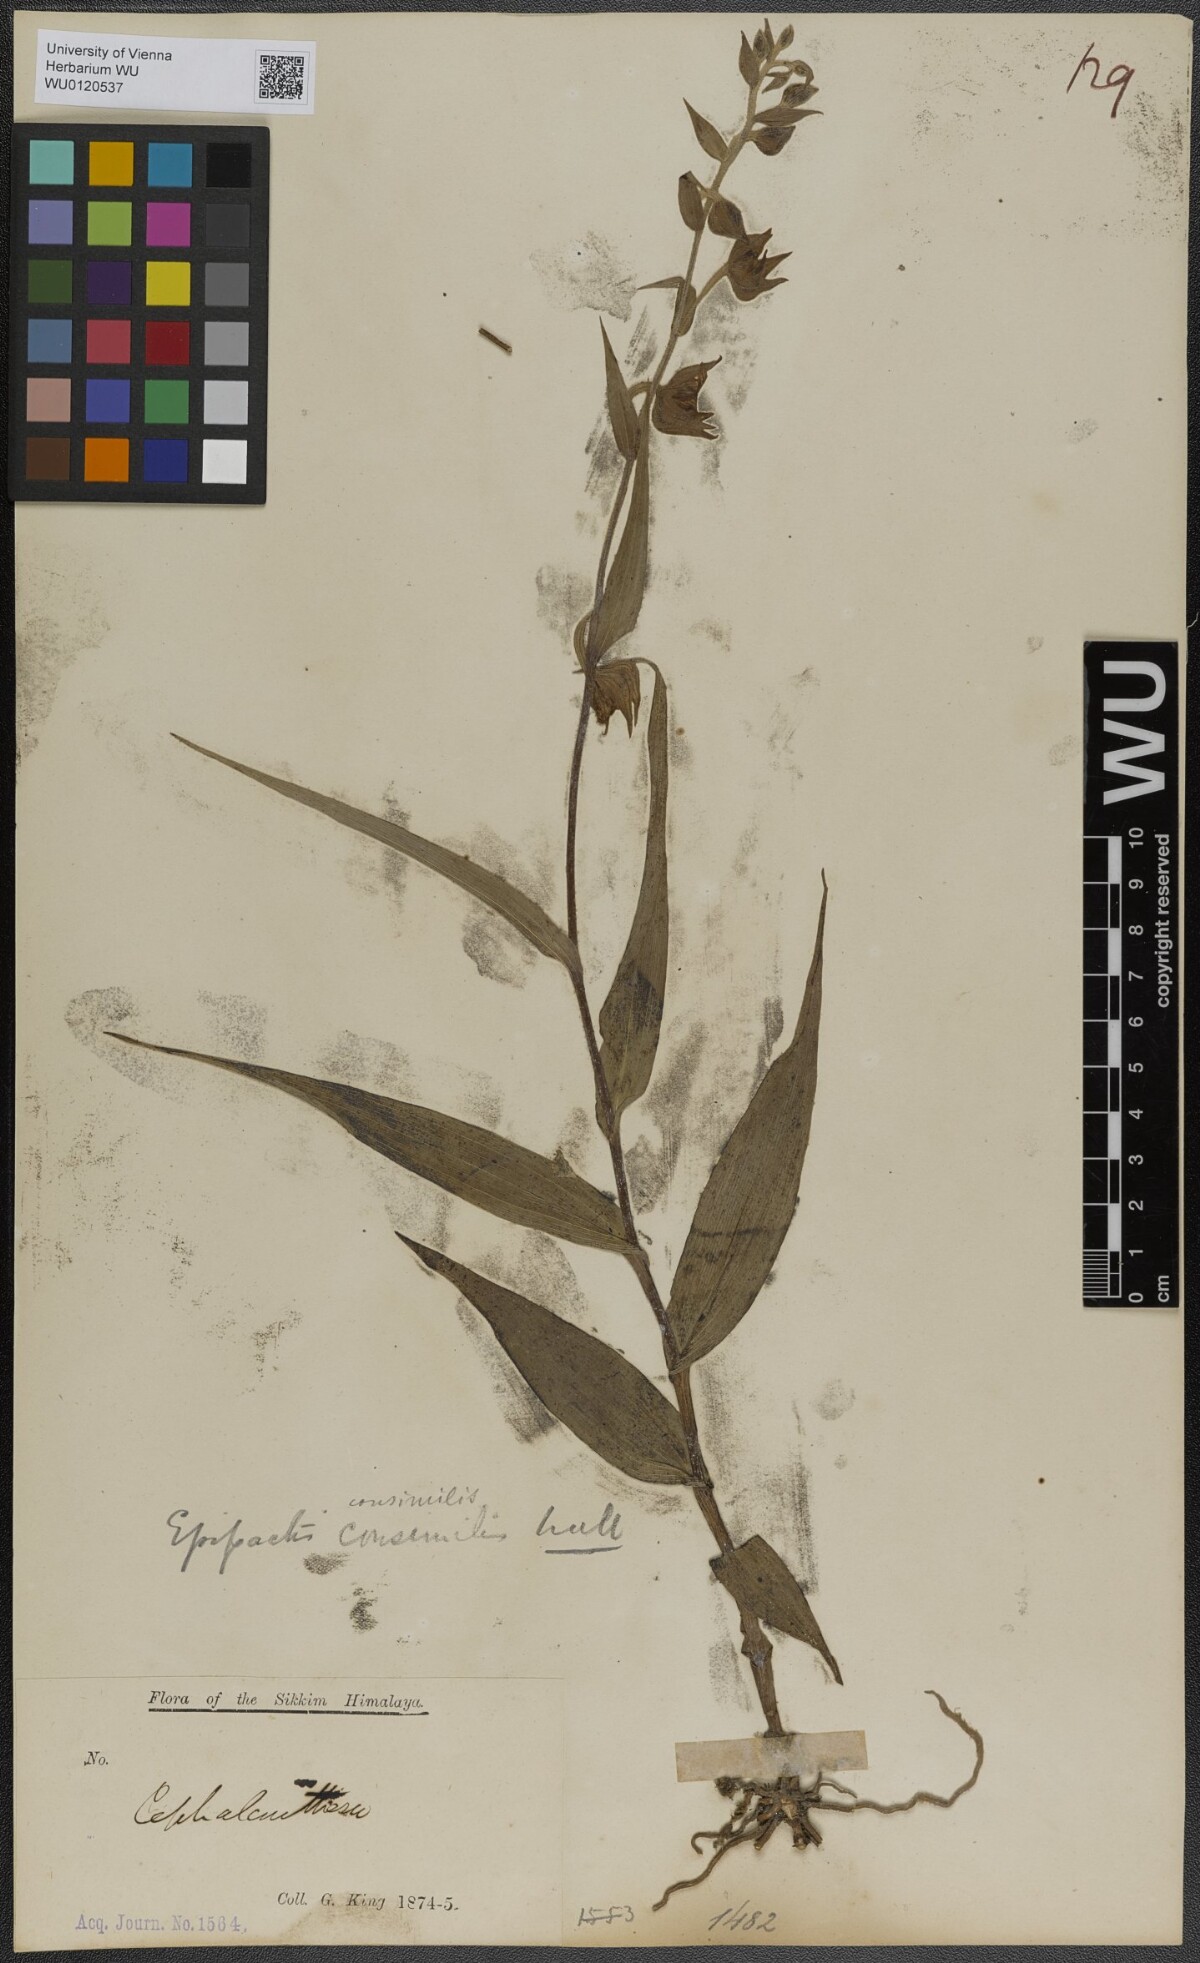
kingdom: Plantae
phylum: Tracheophyta
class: Liliopsida
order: Asparagales
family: Orchidaceae
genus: Epipactis
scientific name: Epipactis helleborine
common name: Broad-leaved helleborine
